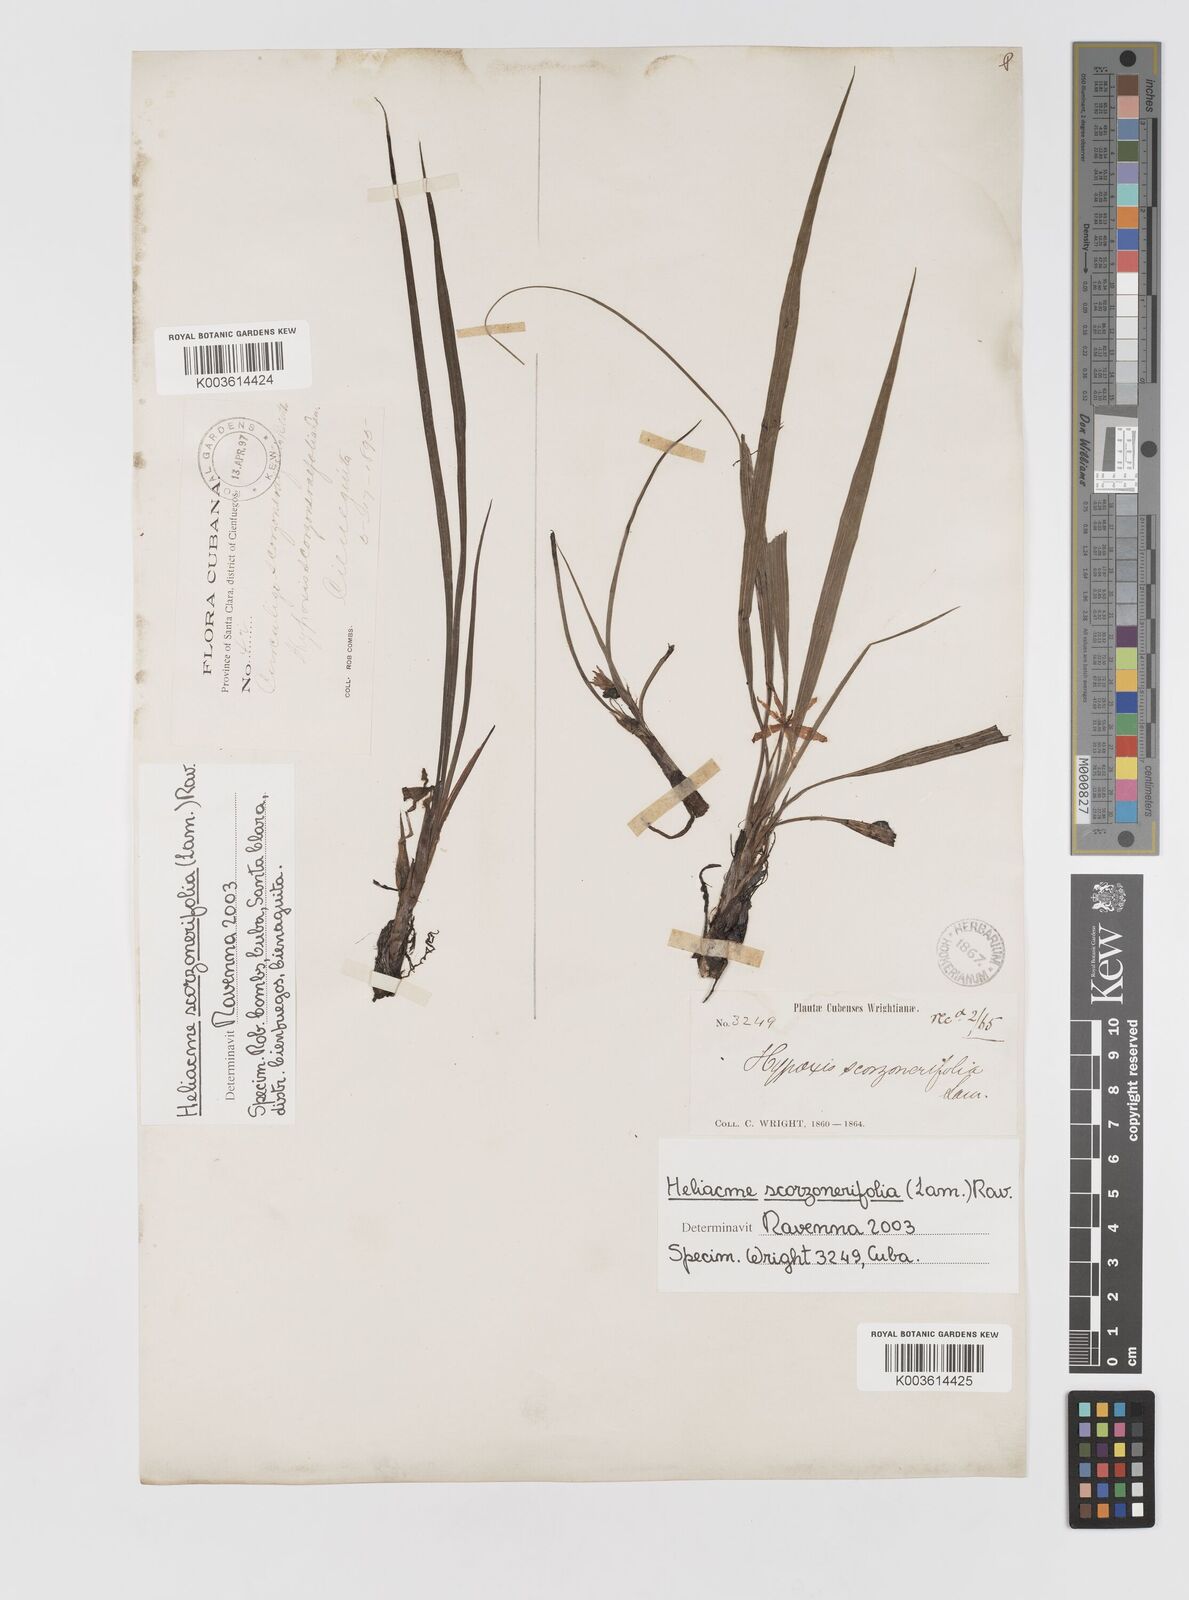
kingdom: Plantae
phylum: Tracheophyta
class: Liliopsida
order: Asparagales
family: Hypoxidaceae
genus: Curculigo
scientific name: Curculigo scorzonerifolia
